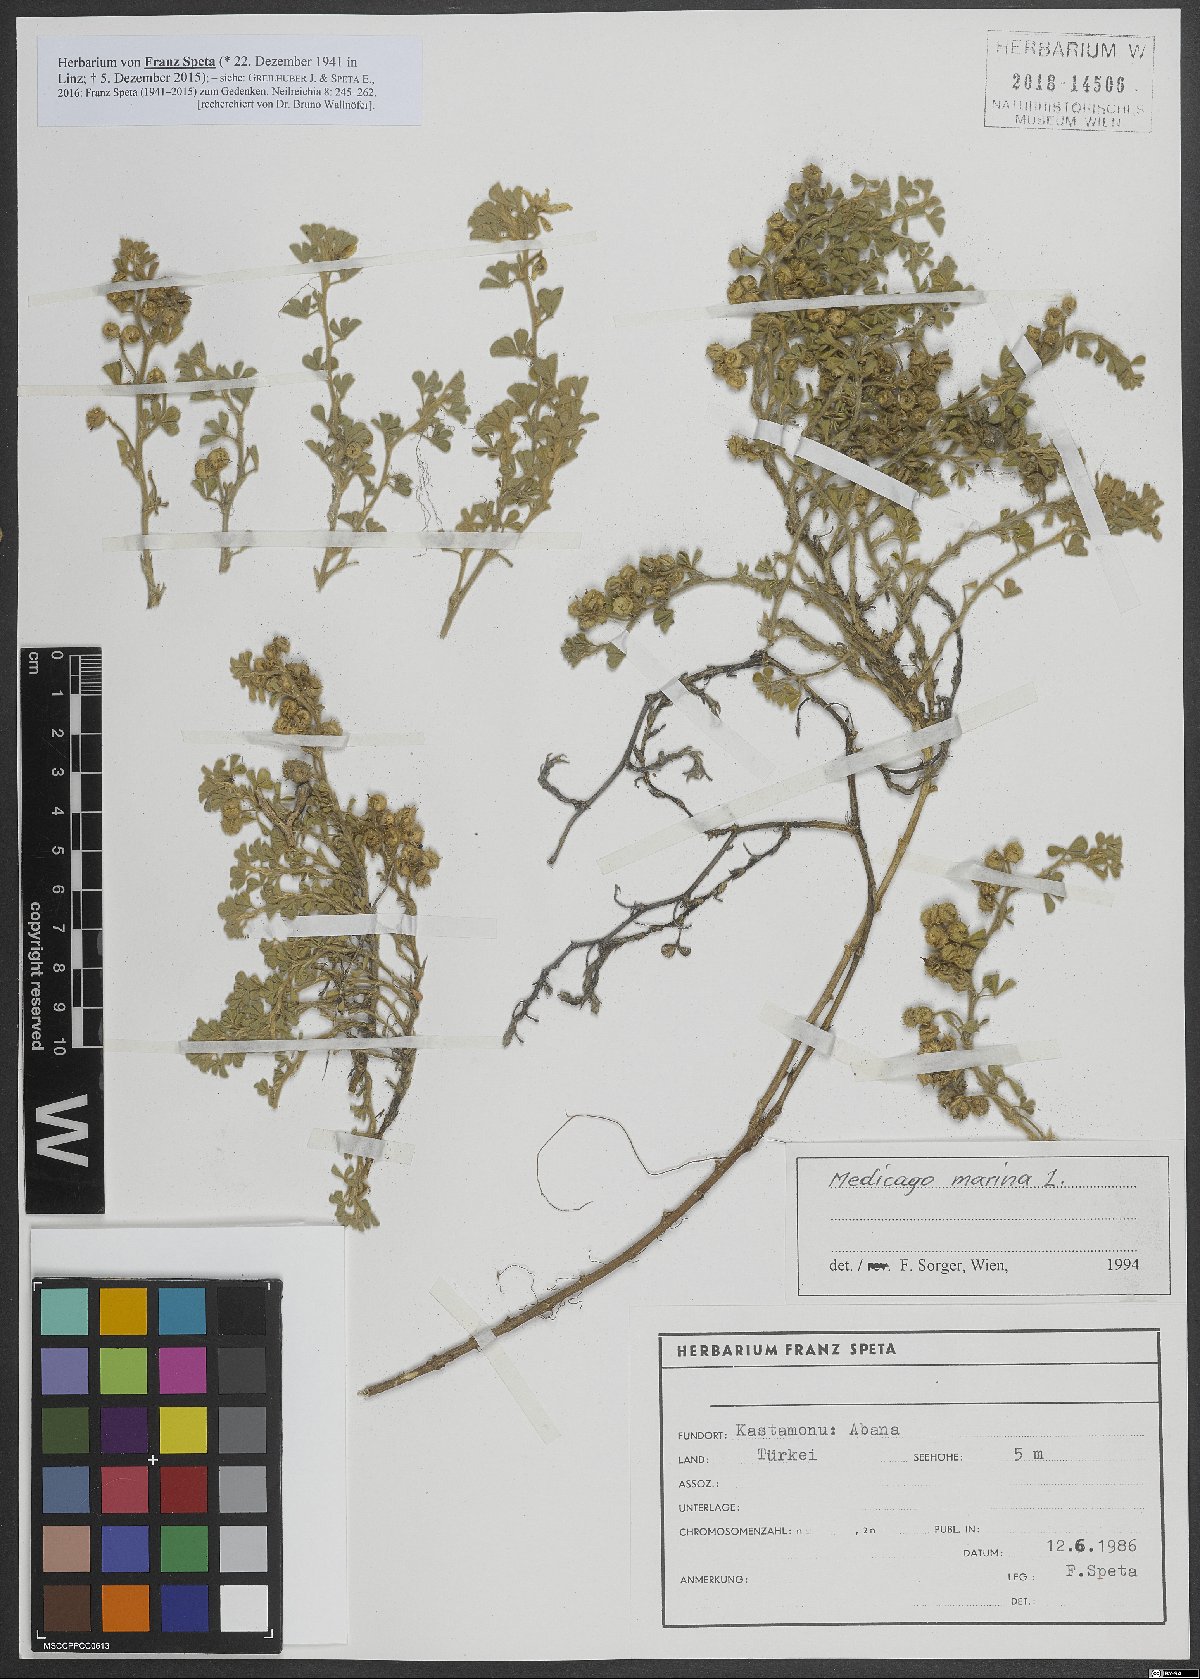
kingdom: Plantae
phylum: Tracheophyta
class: Magnoliopsida
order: Fabales
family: Fabaceae
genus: Medicago
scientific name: Medicago marina
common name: Sea medick
